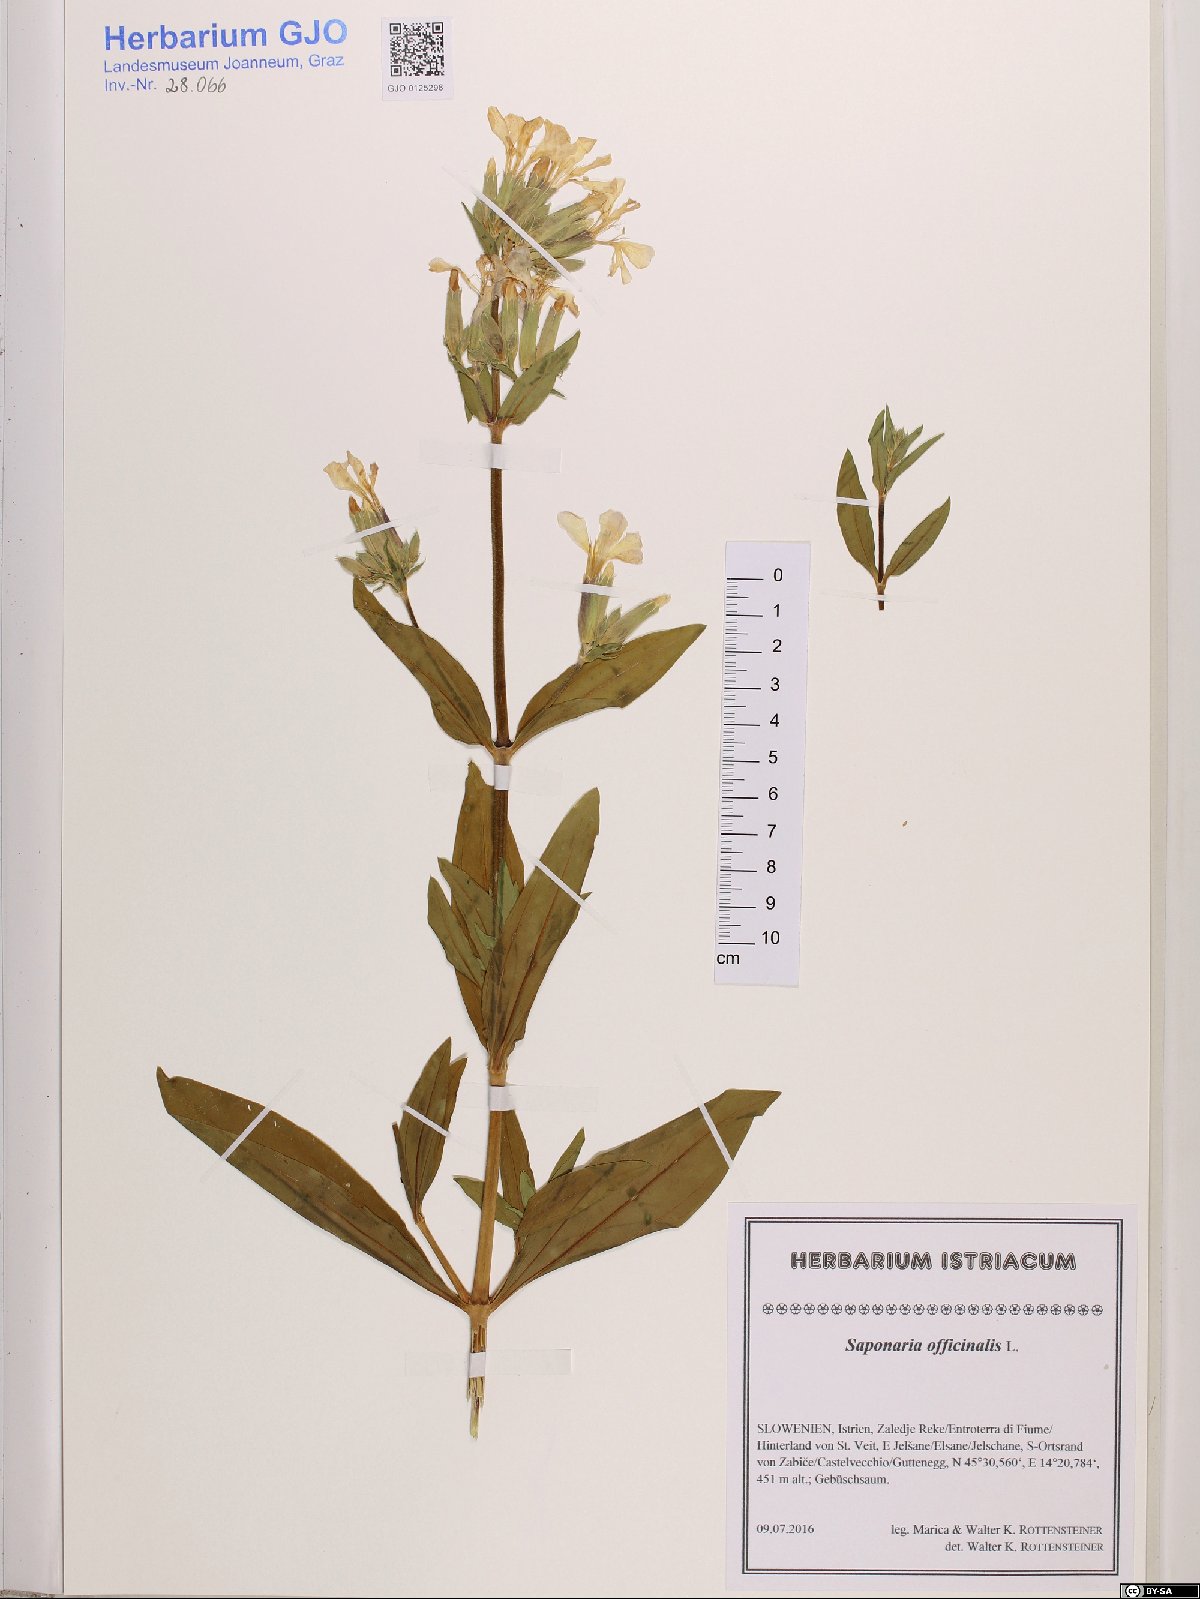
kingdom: Plantae
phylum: Tracheophyta
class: Magnoliopsida
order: Caryophyllales
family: Caryophyllaceae
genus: Saponaria
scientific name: Saponaria officinalis
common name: Soapwort
